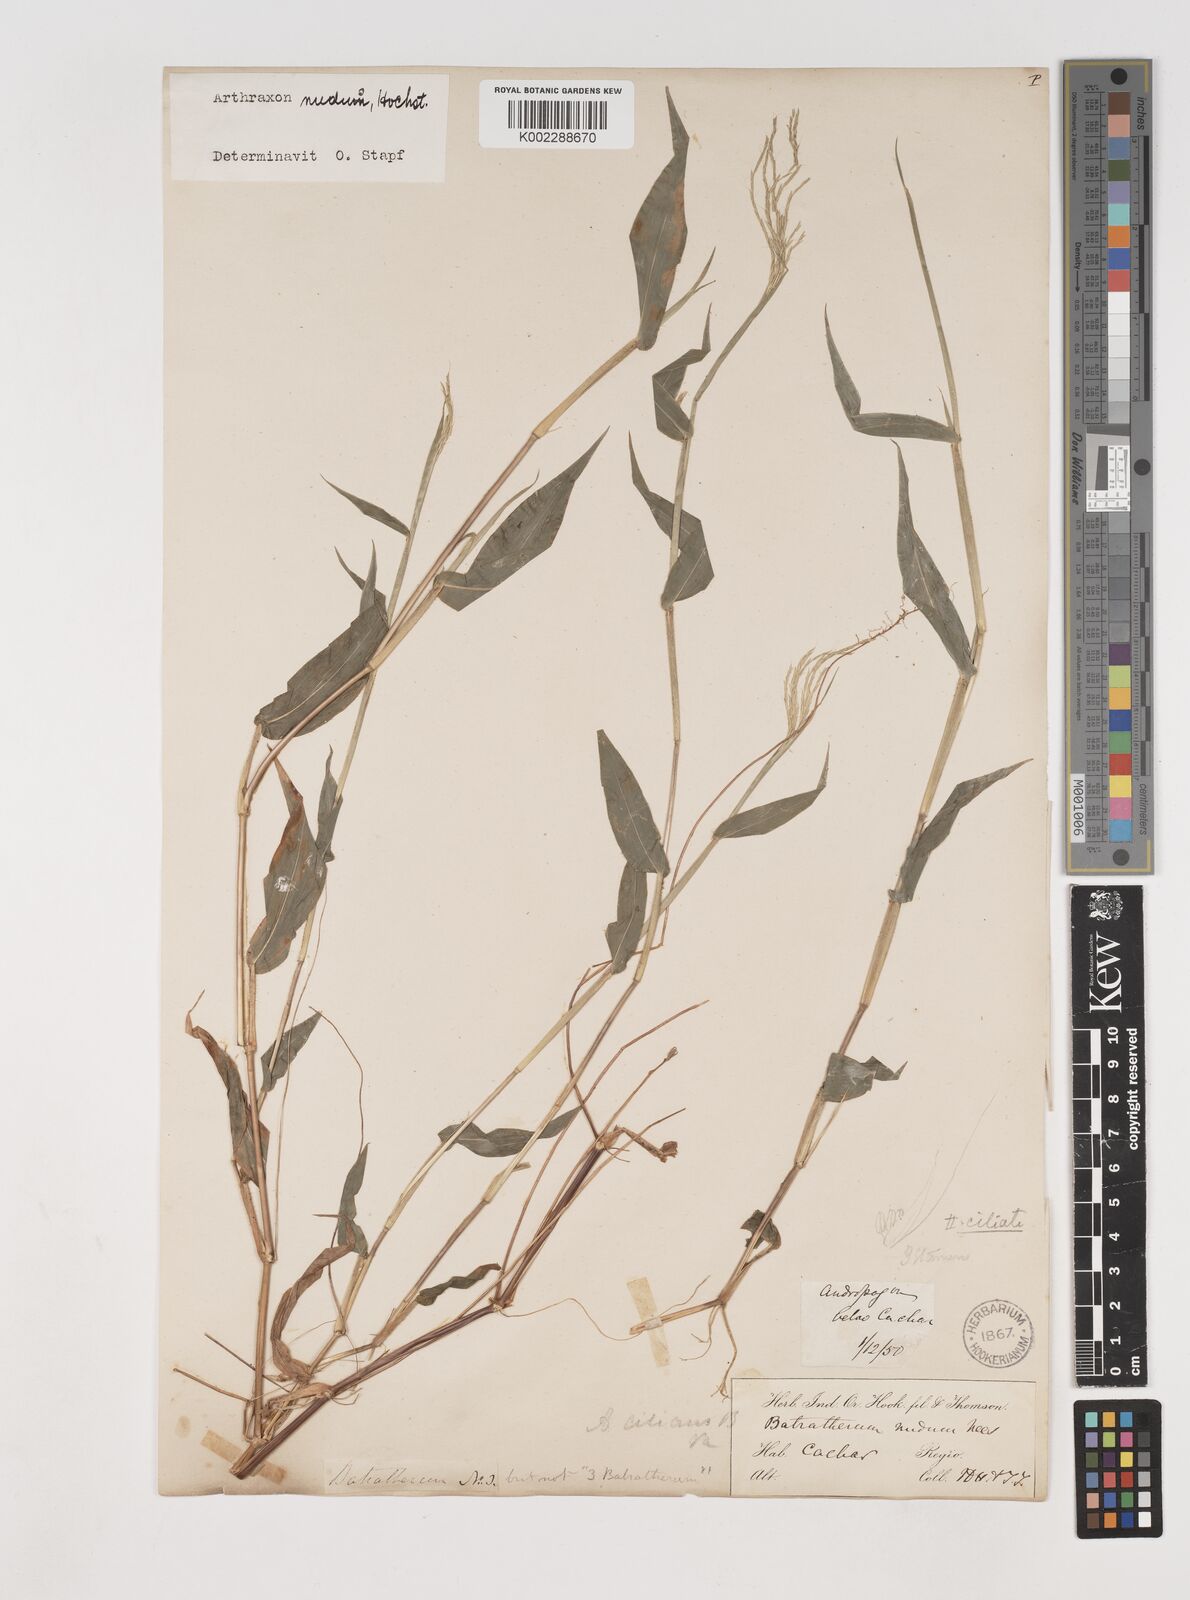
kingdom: Plantae
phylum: Tracheophyta
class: Liliopsida
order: Poales
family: Poaceae
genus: Arthraxon
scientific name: Arthraxon nudus
